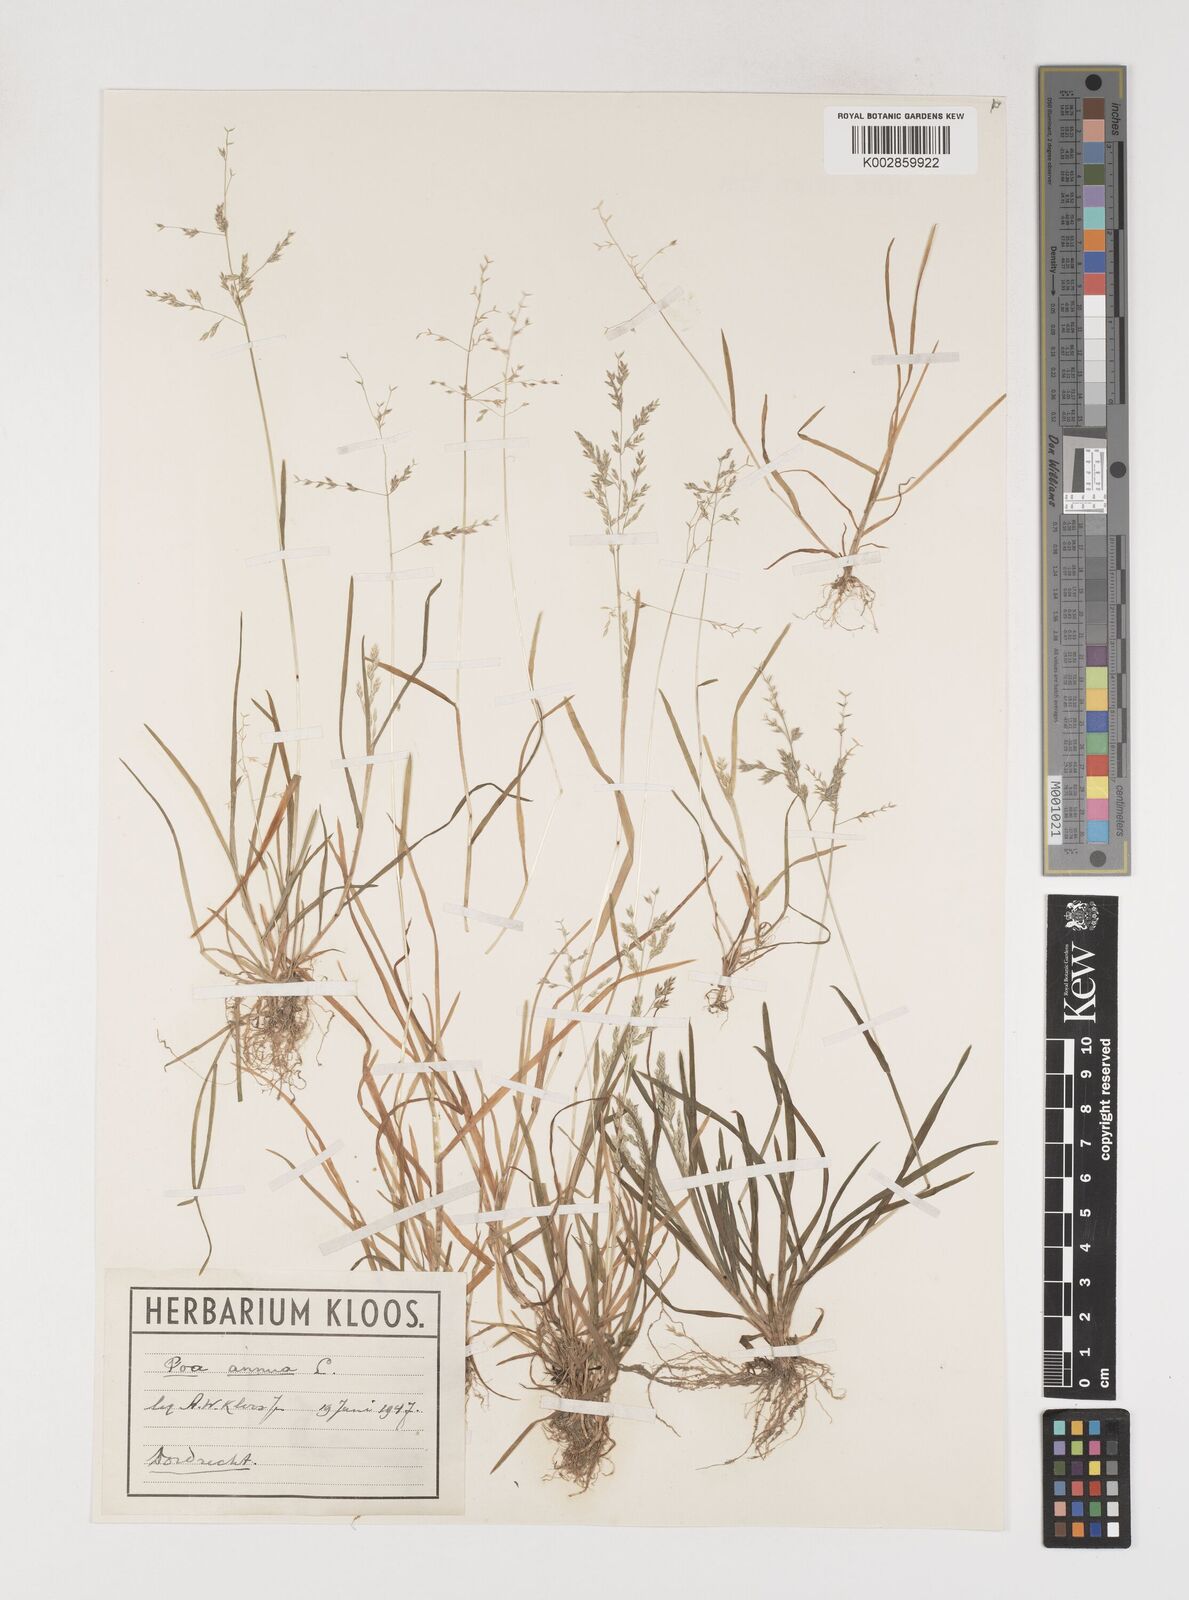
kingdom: Plantae
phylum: Tracheophyta
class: Liliopsida
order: Poales
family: Poaceae
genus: Poa
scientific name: Poa annua
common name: Annual bluegrass
